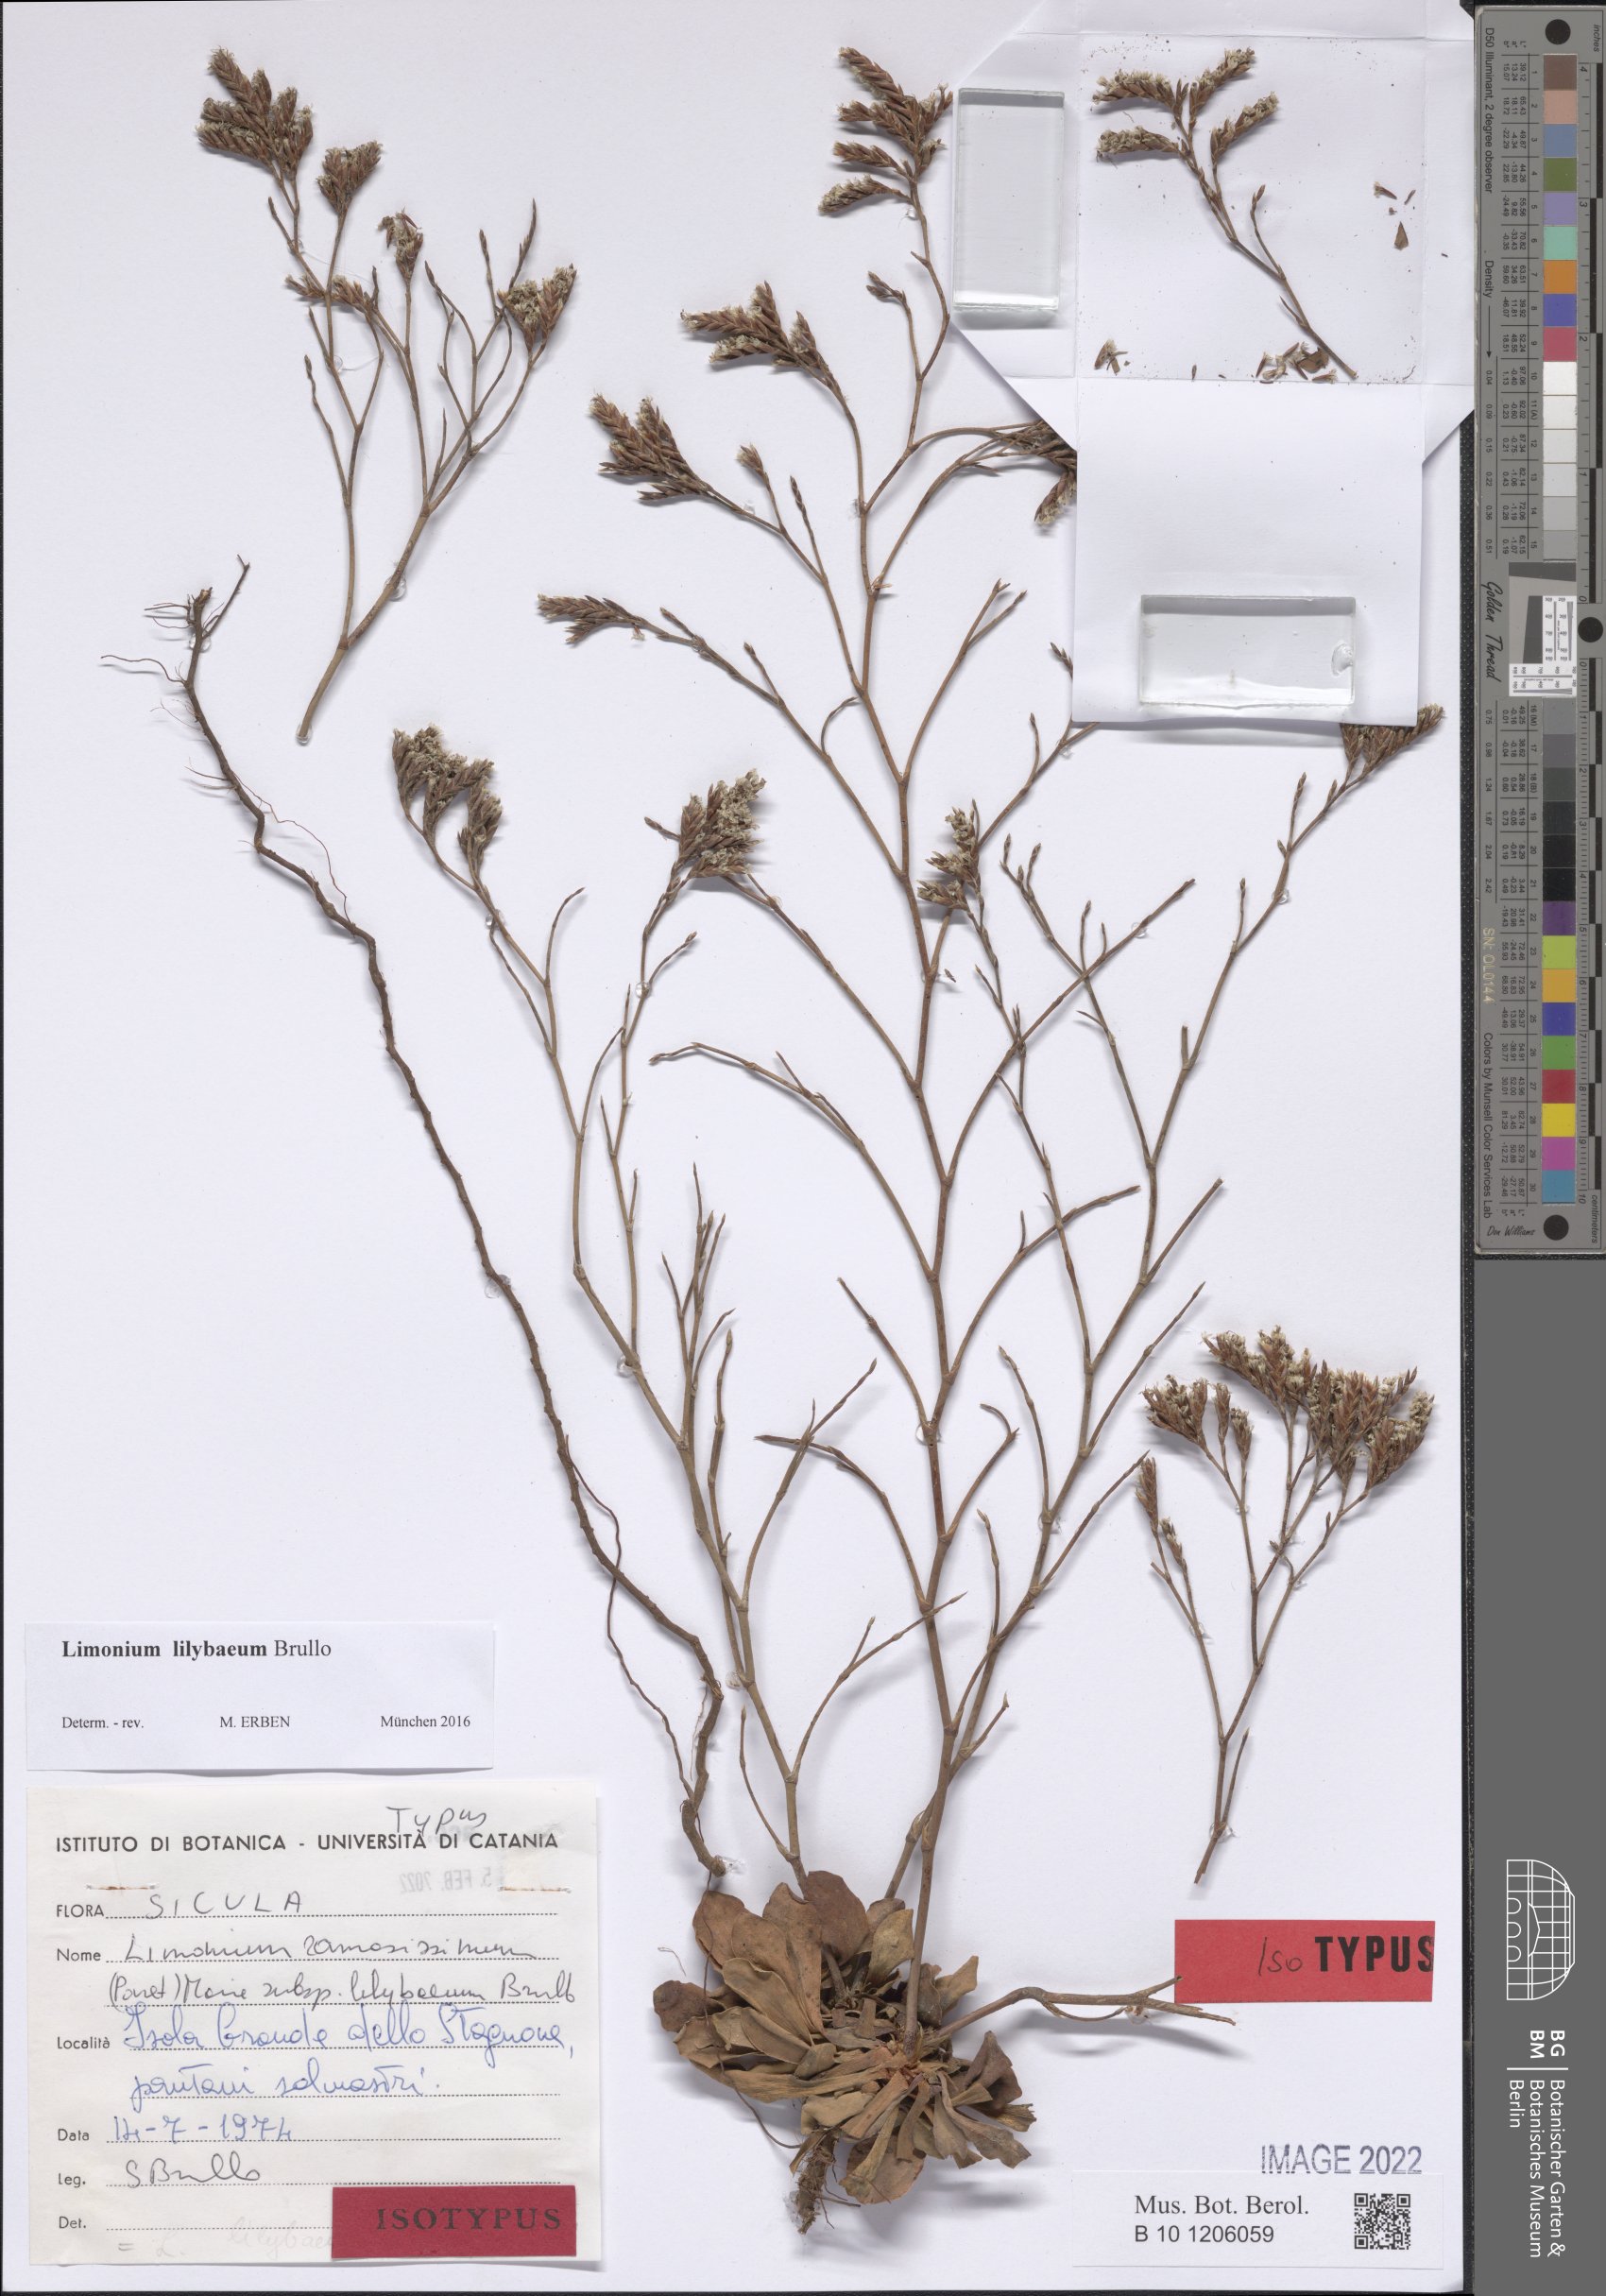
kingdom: Plantae
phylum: Tracheophyta
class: Magnoliopsida
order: Caryophyllales
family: Plumbaginaceae
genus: Limonium
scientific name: Limonium lilybaeum
